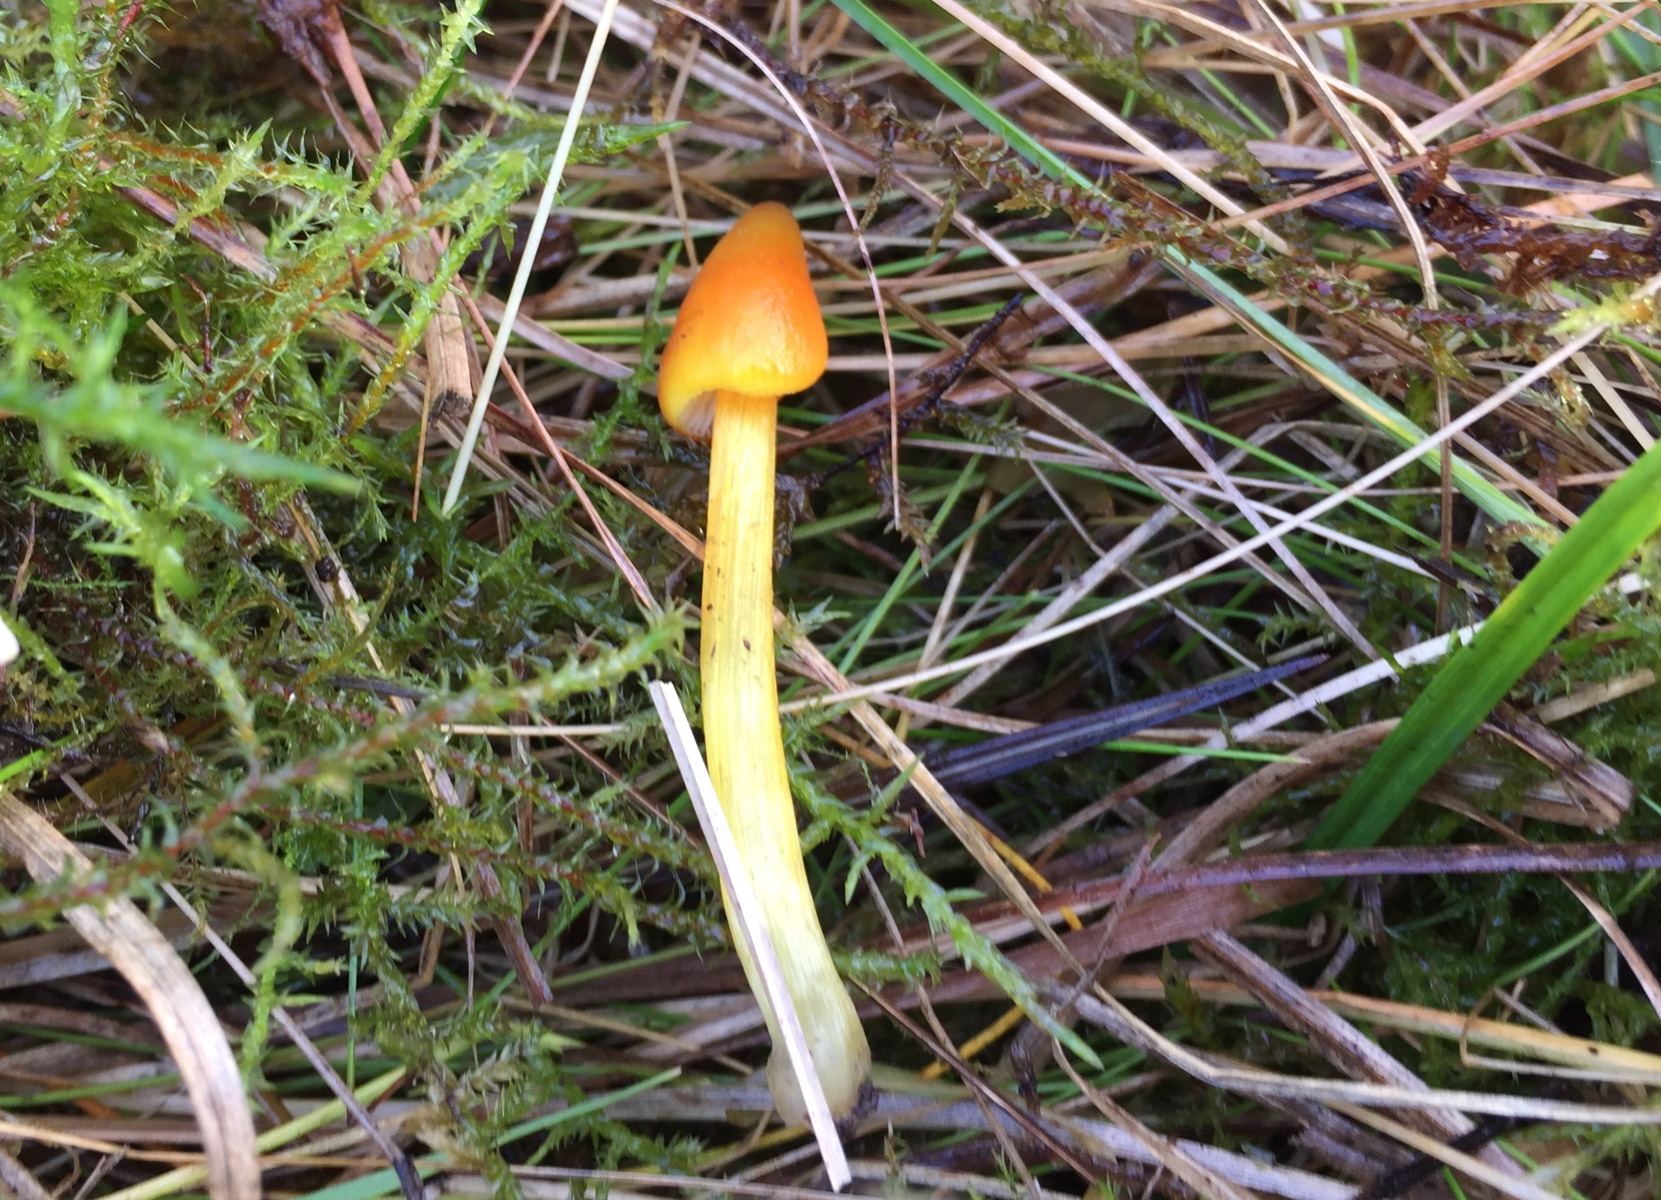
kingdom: Fungi
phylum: Basidiomycota
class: Agaricomycetes
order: Agaricales
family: Hygrophoraceae
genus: Hygrocybe
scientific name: Hygrocybe conica
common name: kegle-vokshat
